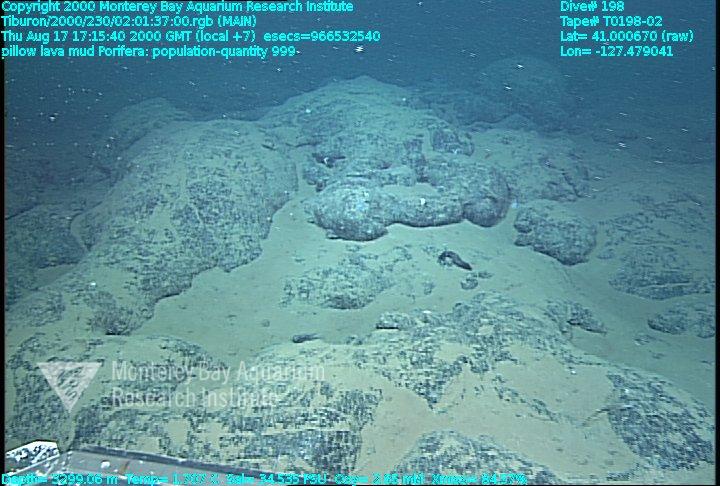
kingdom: Animalia
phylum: Porifera
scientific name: Porifera
